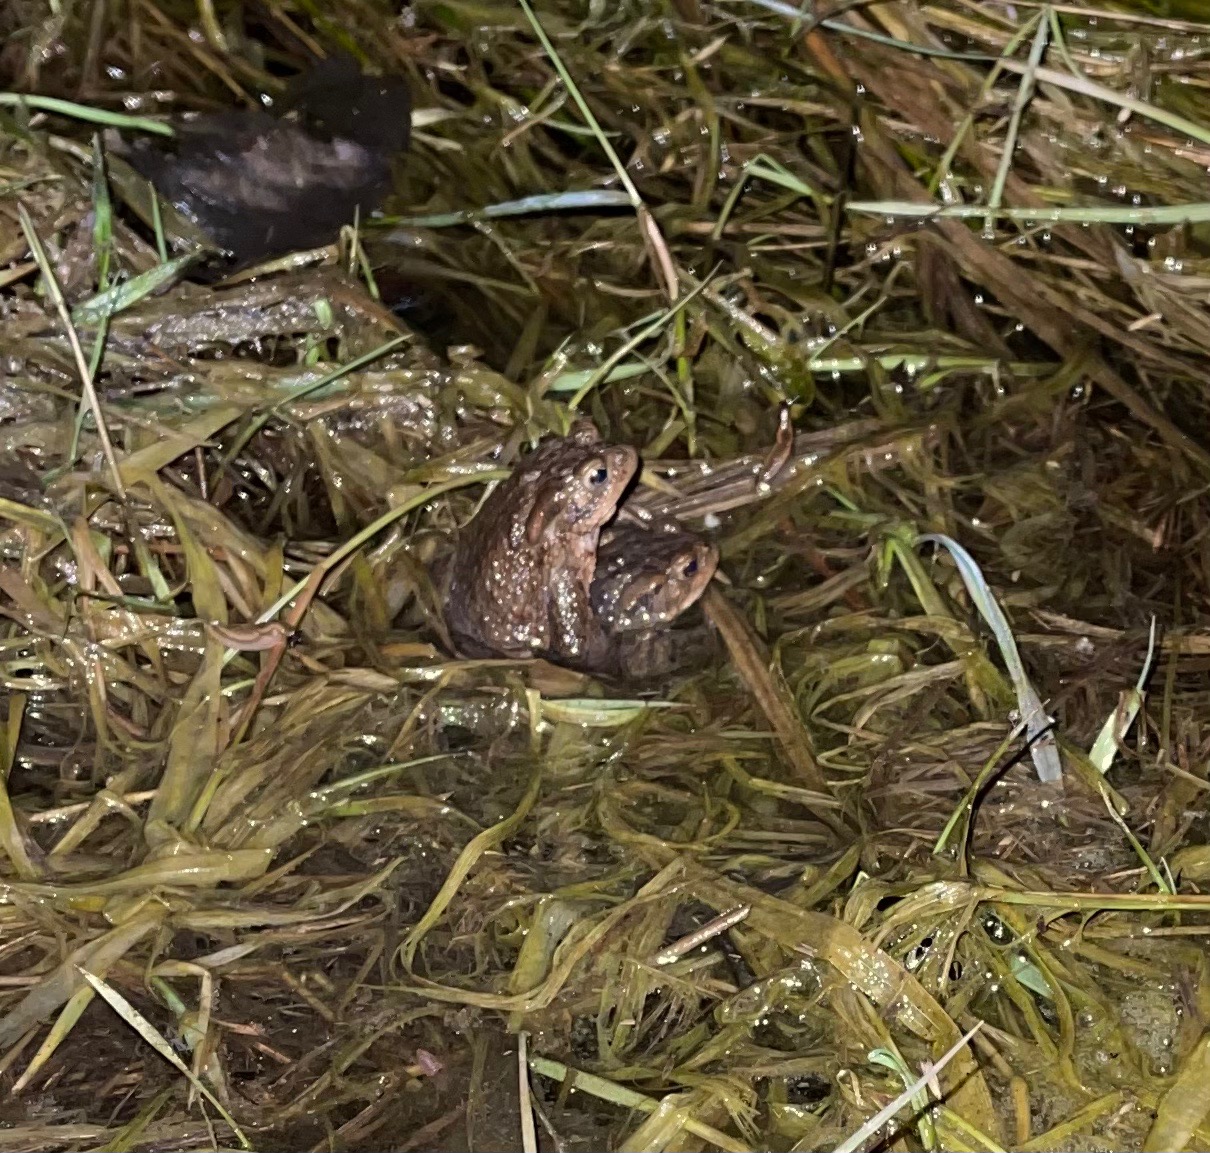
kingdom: Animalia
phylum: Chordata
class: Amphibia
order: Anura
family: Bufonidae
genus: Bufo
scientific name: Bufo bufo
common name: Skrubtudse
